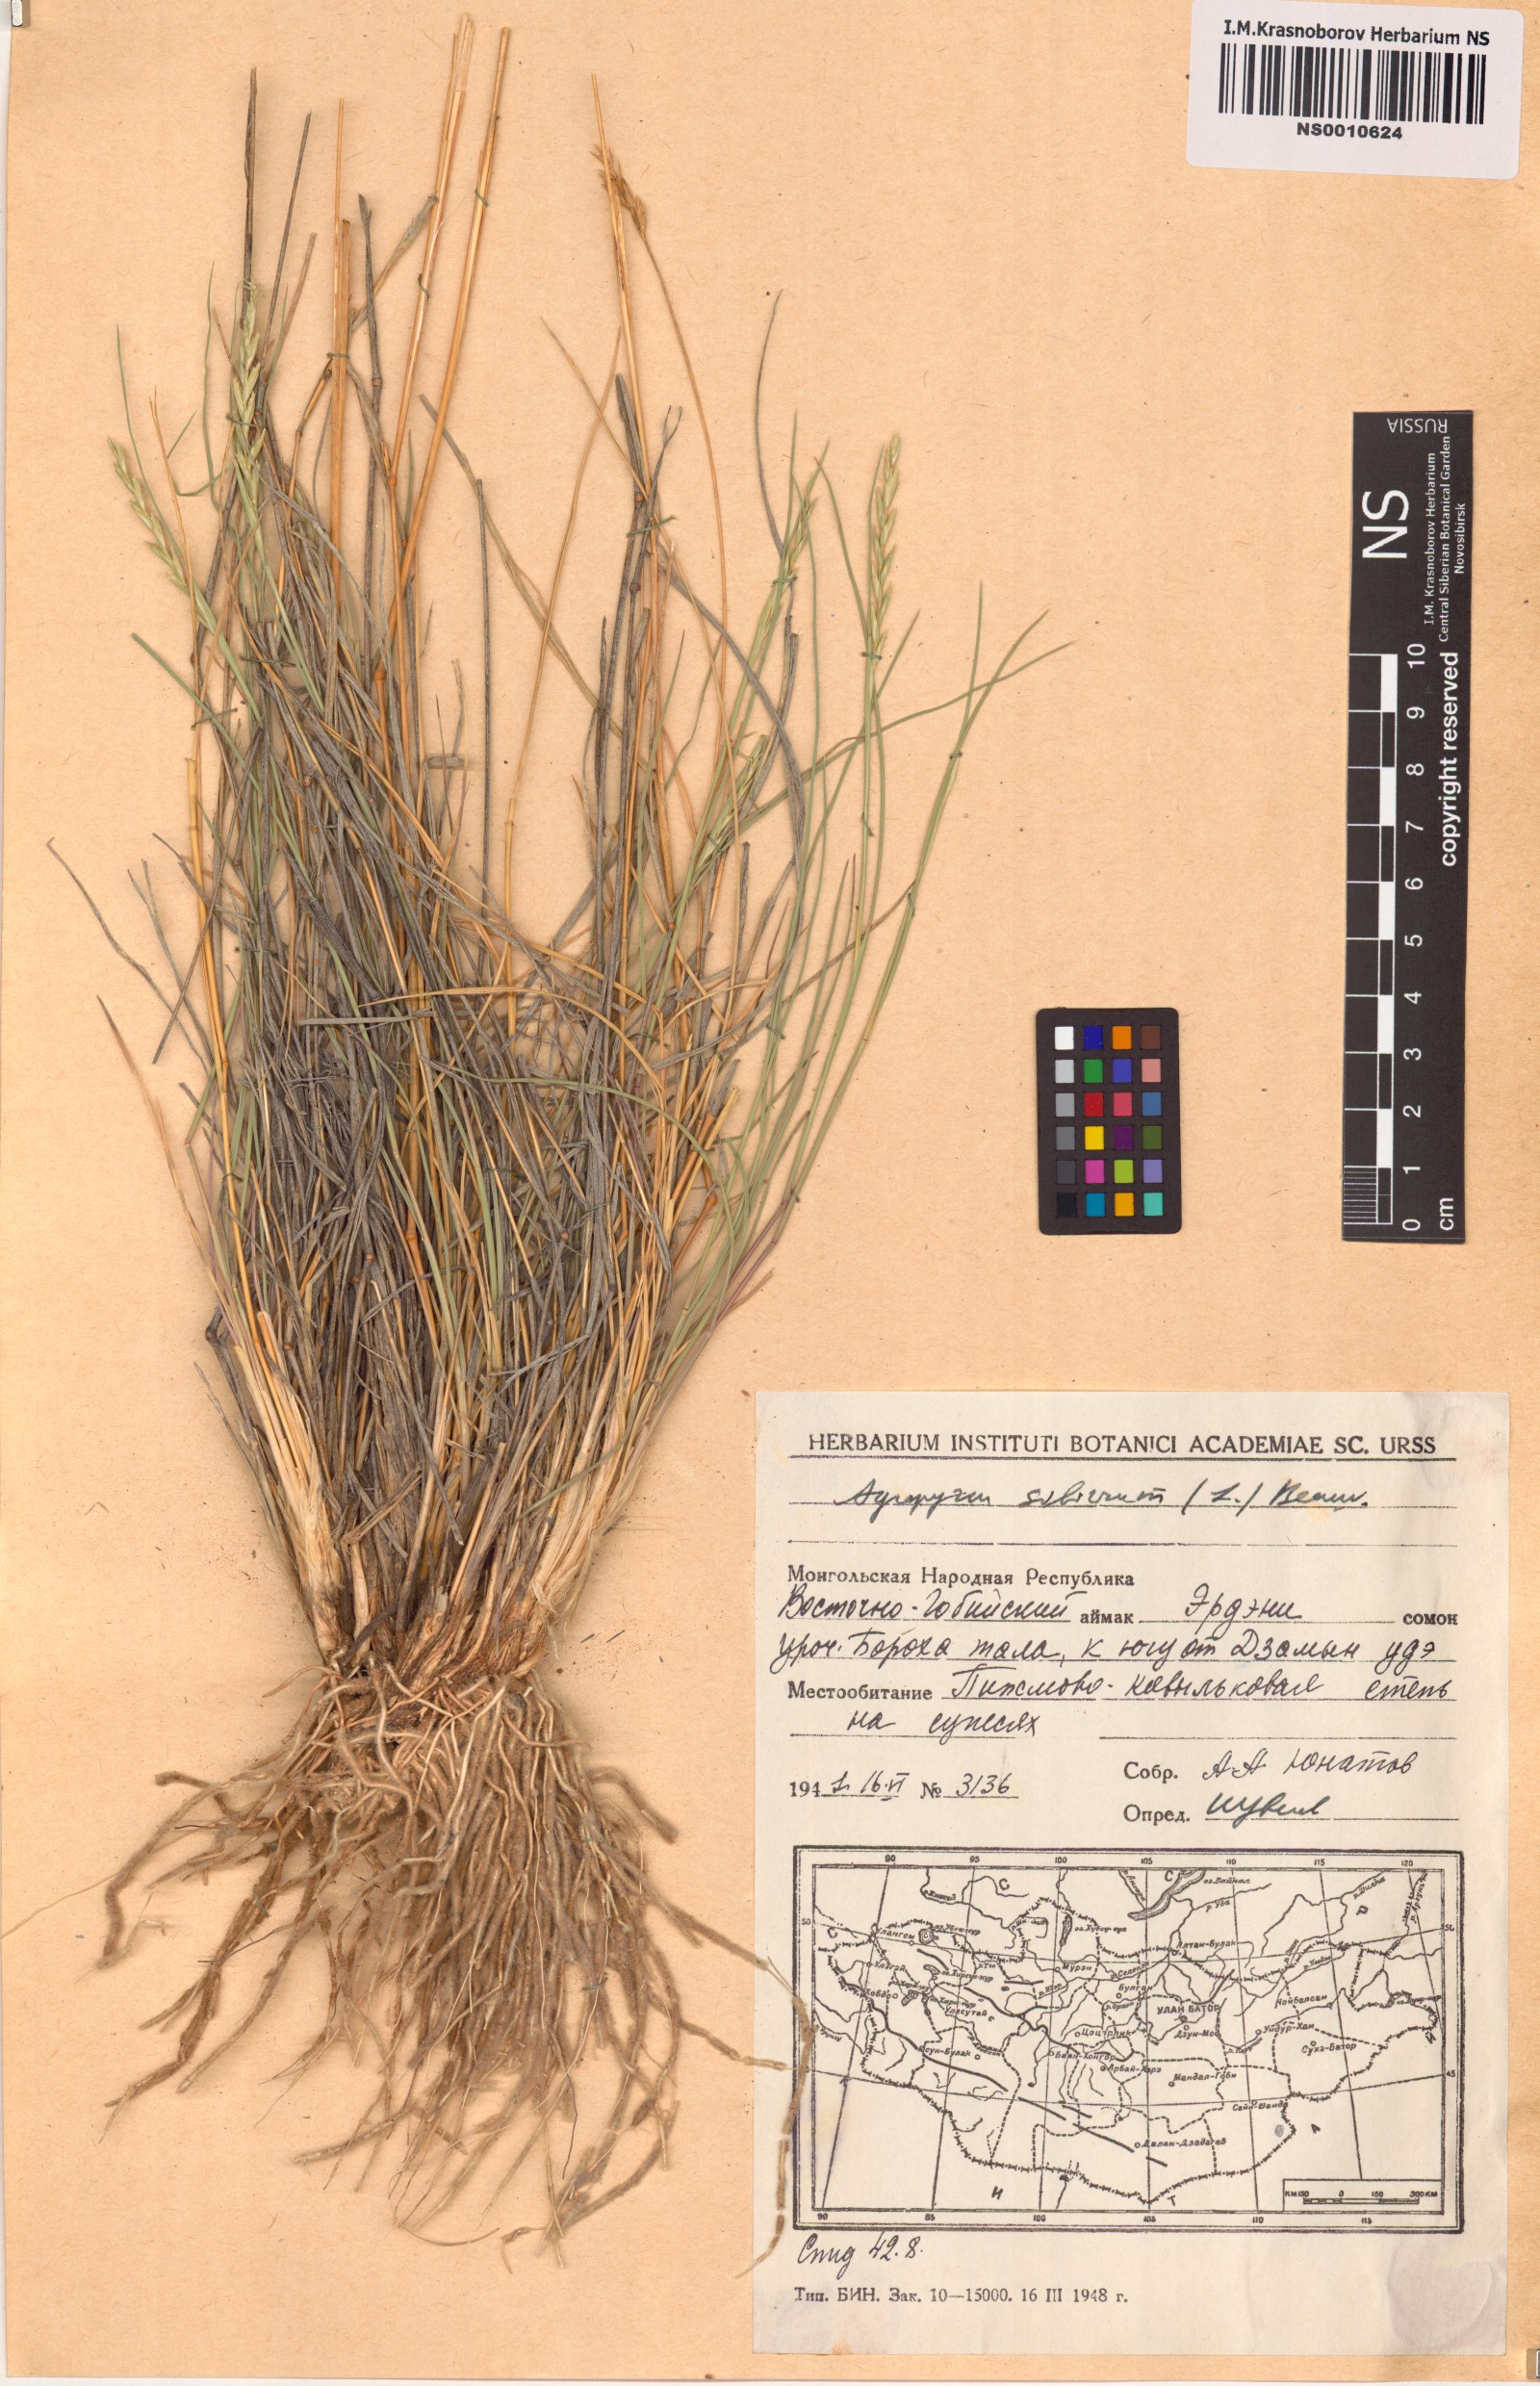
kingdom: Plantae
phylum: Tracheophyta
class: Liliopsida
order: Poales
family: Poaceae
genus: Agropyron
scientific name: Agropyron fragile
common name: Siberian wheatgrass
